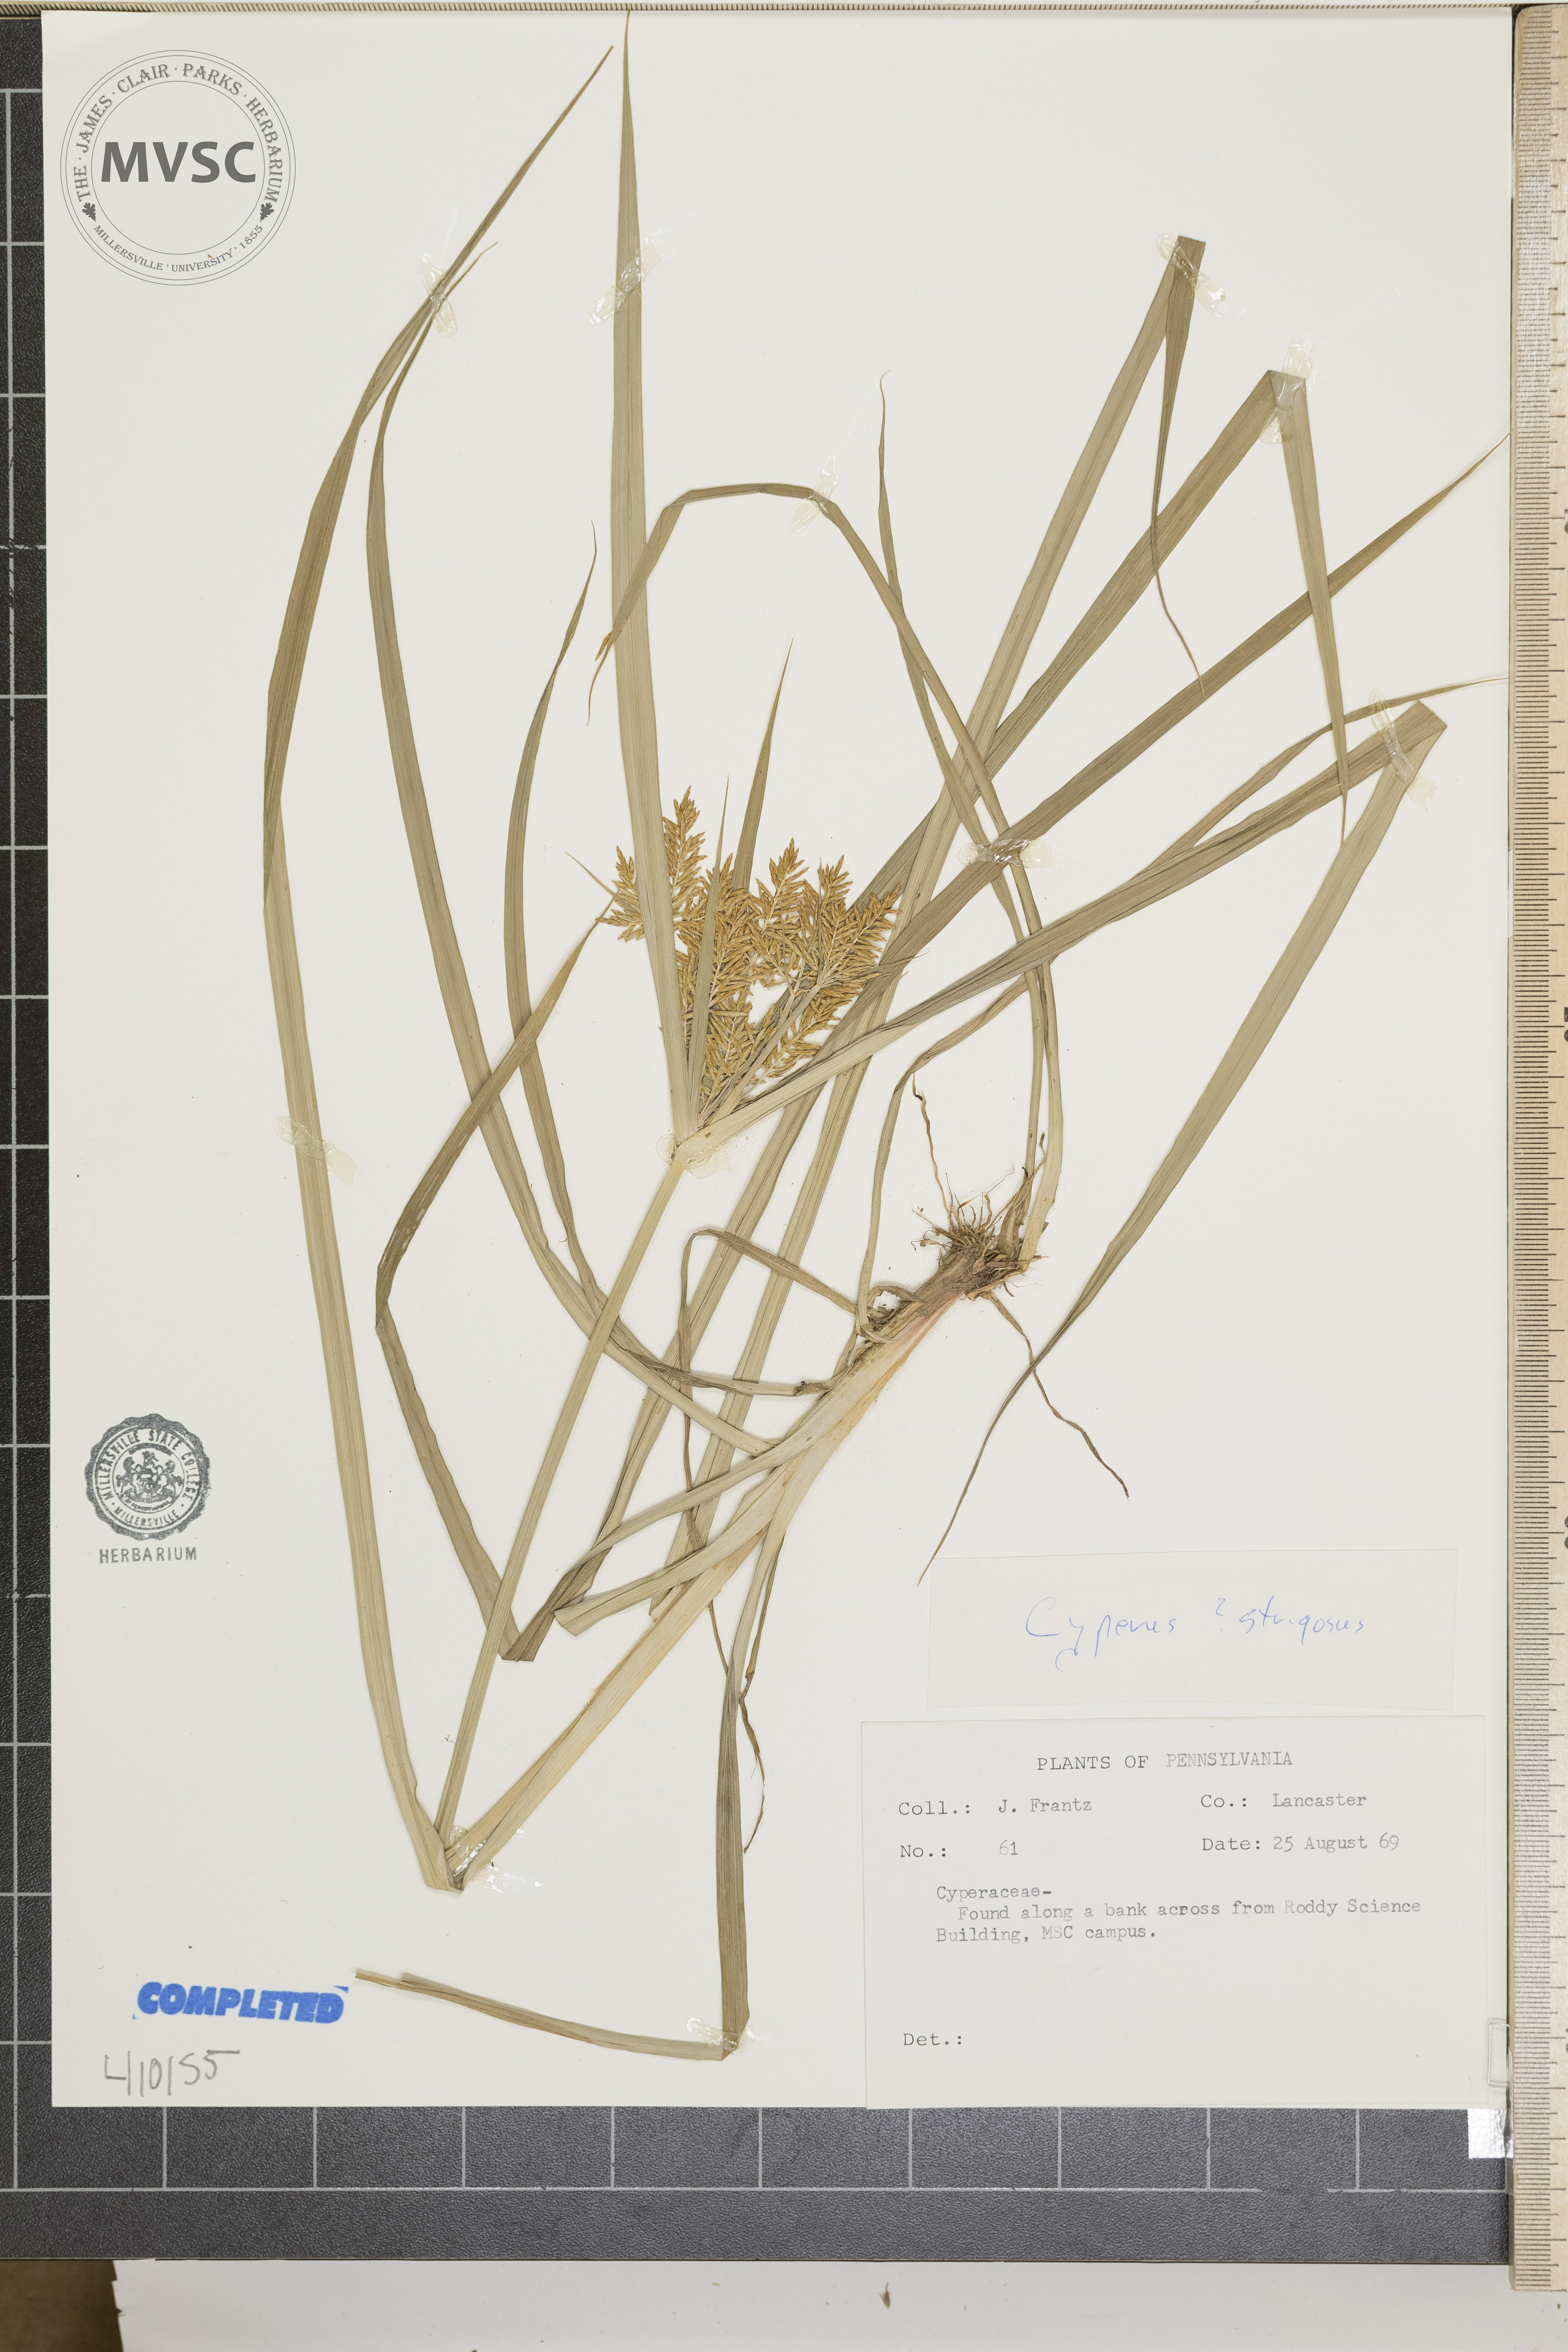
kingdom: Plantae
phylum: Tracheophyta
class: Liliopsida
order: Poales
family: Cyperaceae
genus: Cyperus
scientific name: Cyperus strigosus
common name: False nutsedge
